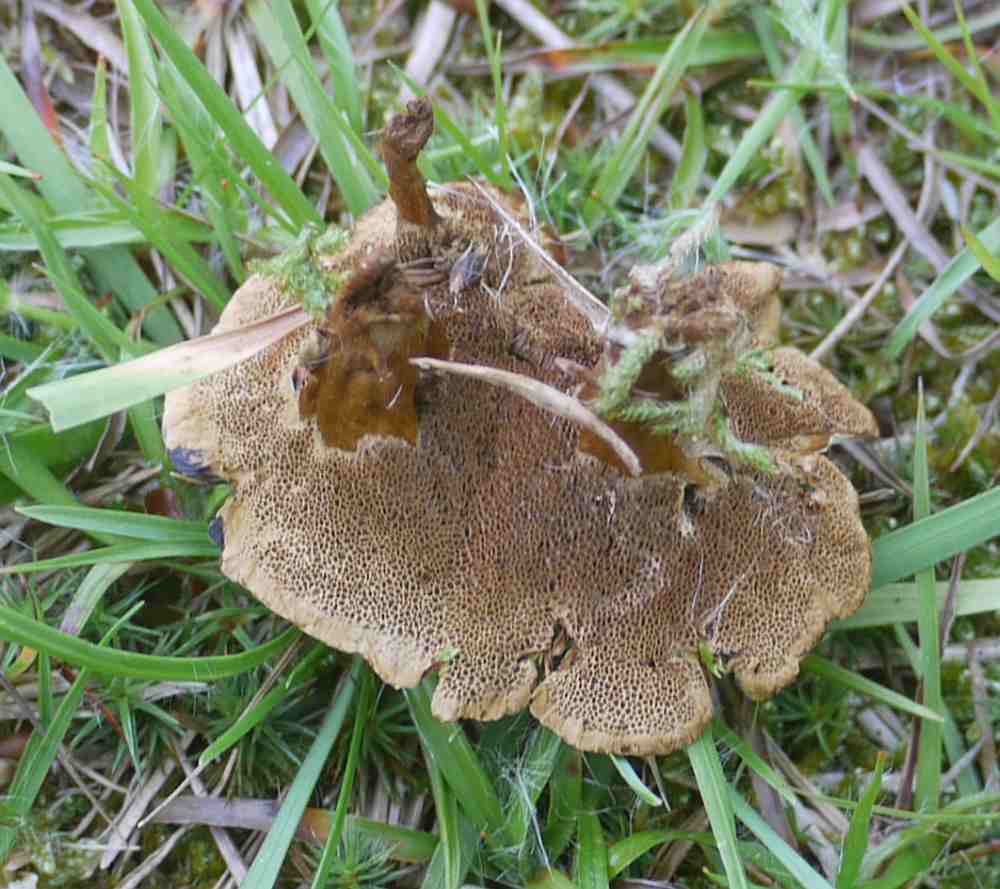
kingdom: Fungi
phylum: Basidiomycota
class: Agaricomycetes
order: Hymenochaetales
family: Hymenochaetaceae
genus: Coltricia
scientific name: Coltricia confluens
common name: park-sandporesvamp
